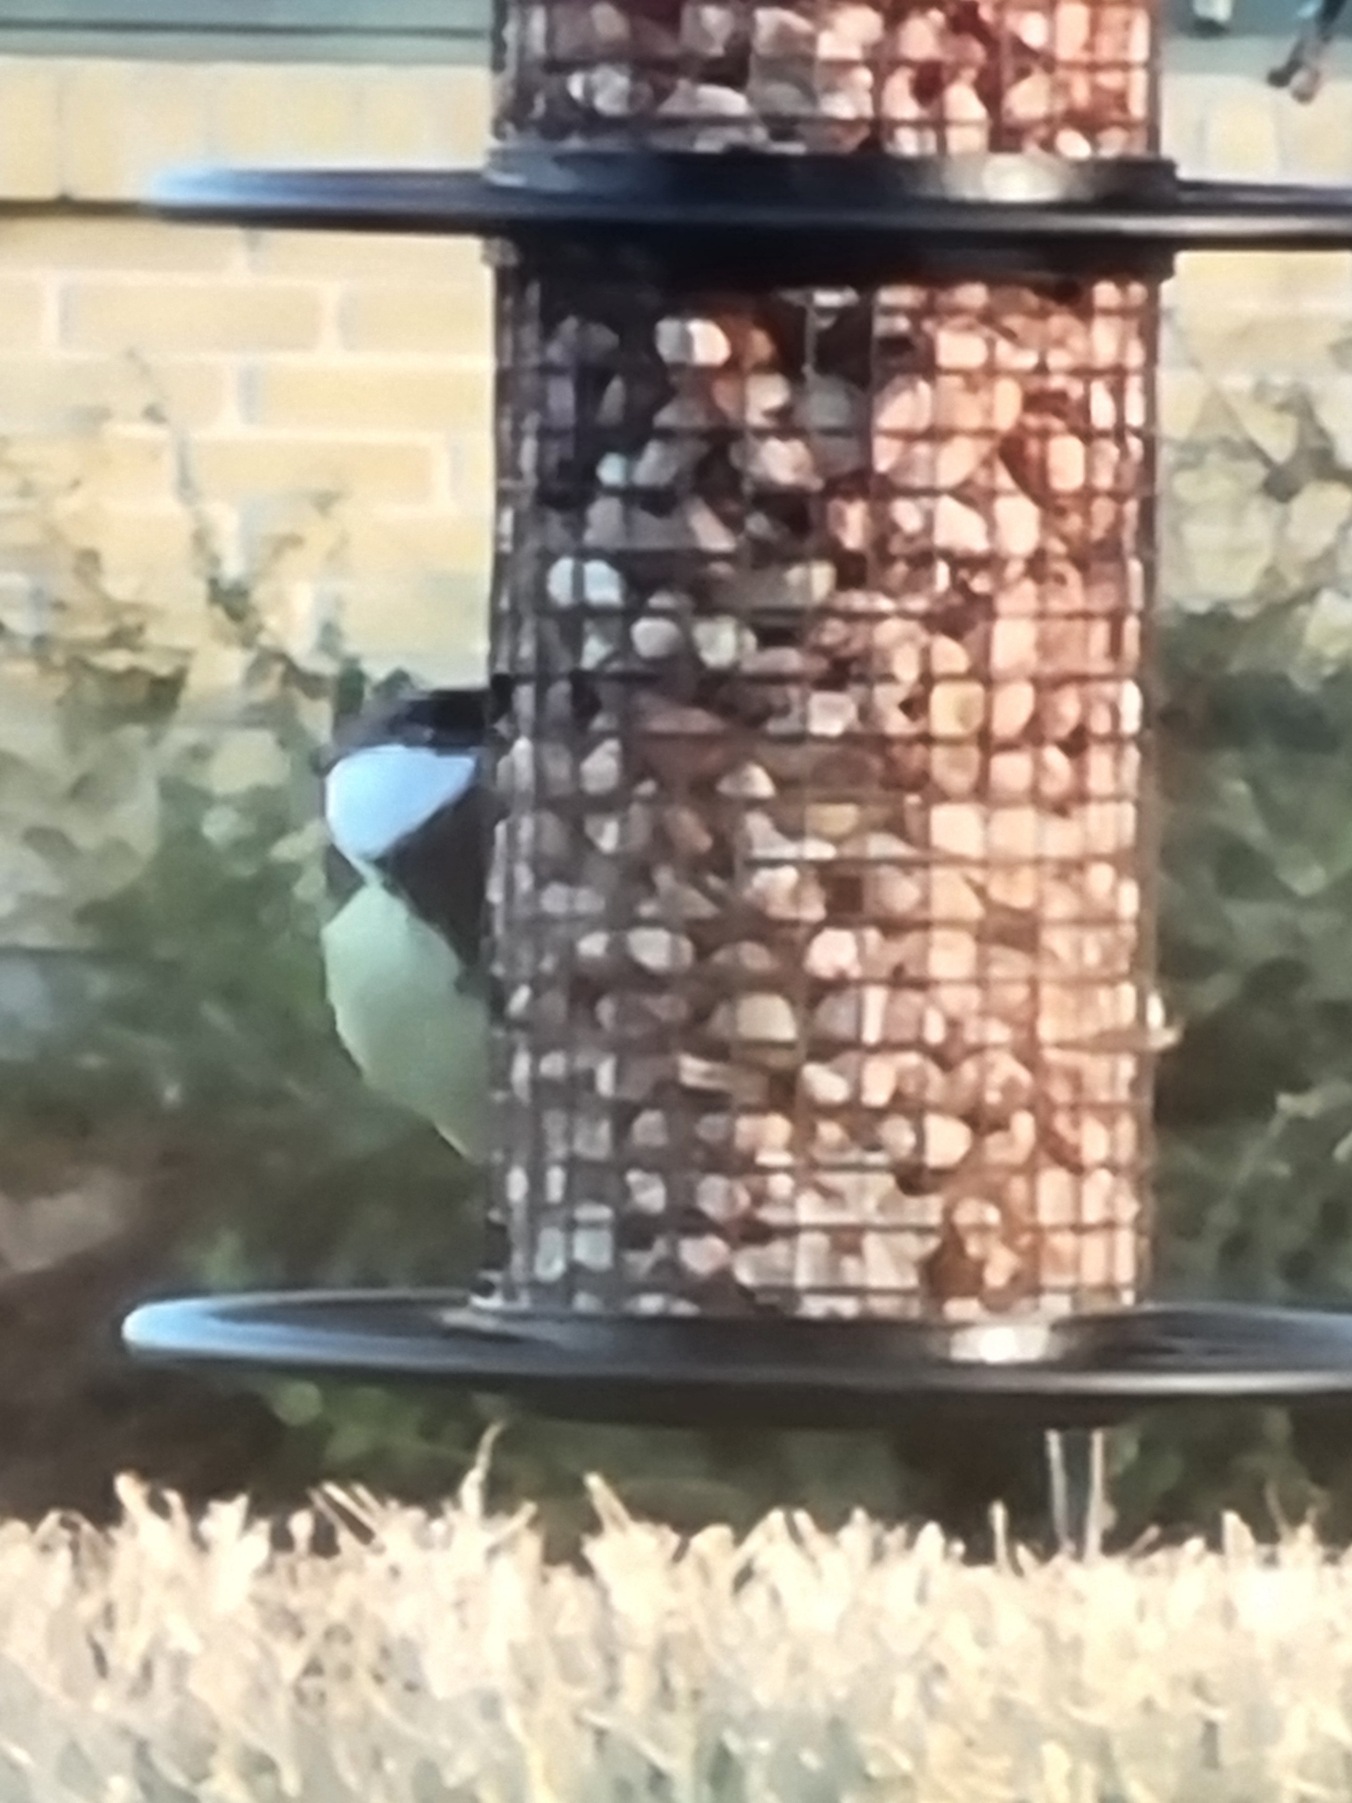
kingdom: Animalia
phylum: Chordata
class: Aves
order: Passeriformes
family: Paridae
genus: Parus
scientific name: Parus major
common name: Musvit
